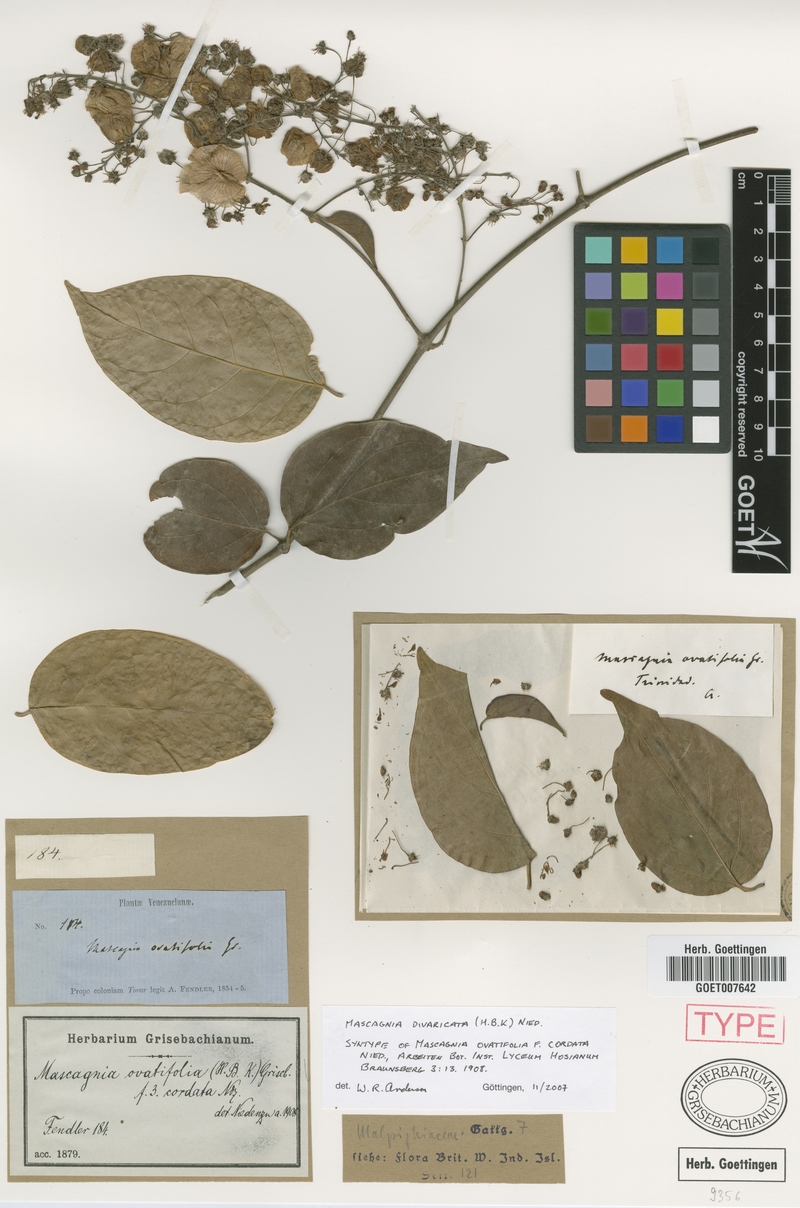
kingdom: Plantae
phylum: Tracheophyta
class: Magnoliopsida
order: Malpighiales
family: Malpighiaceae
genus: Mascagnia
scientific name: Mascagnia divaricata
